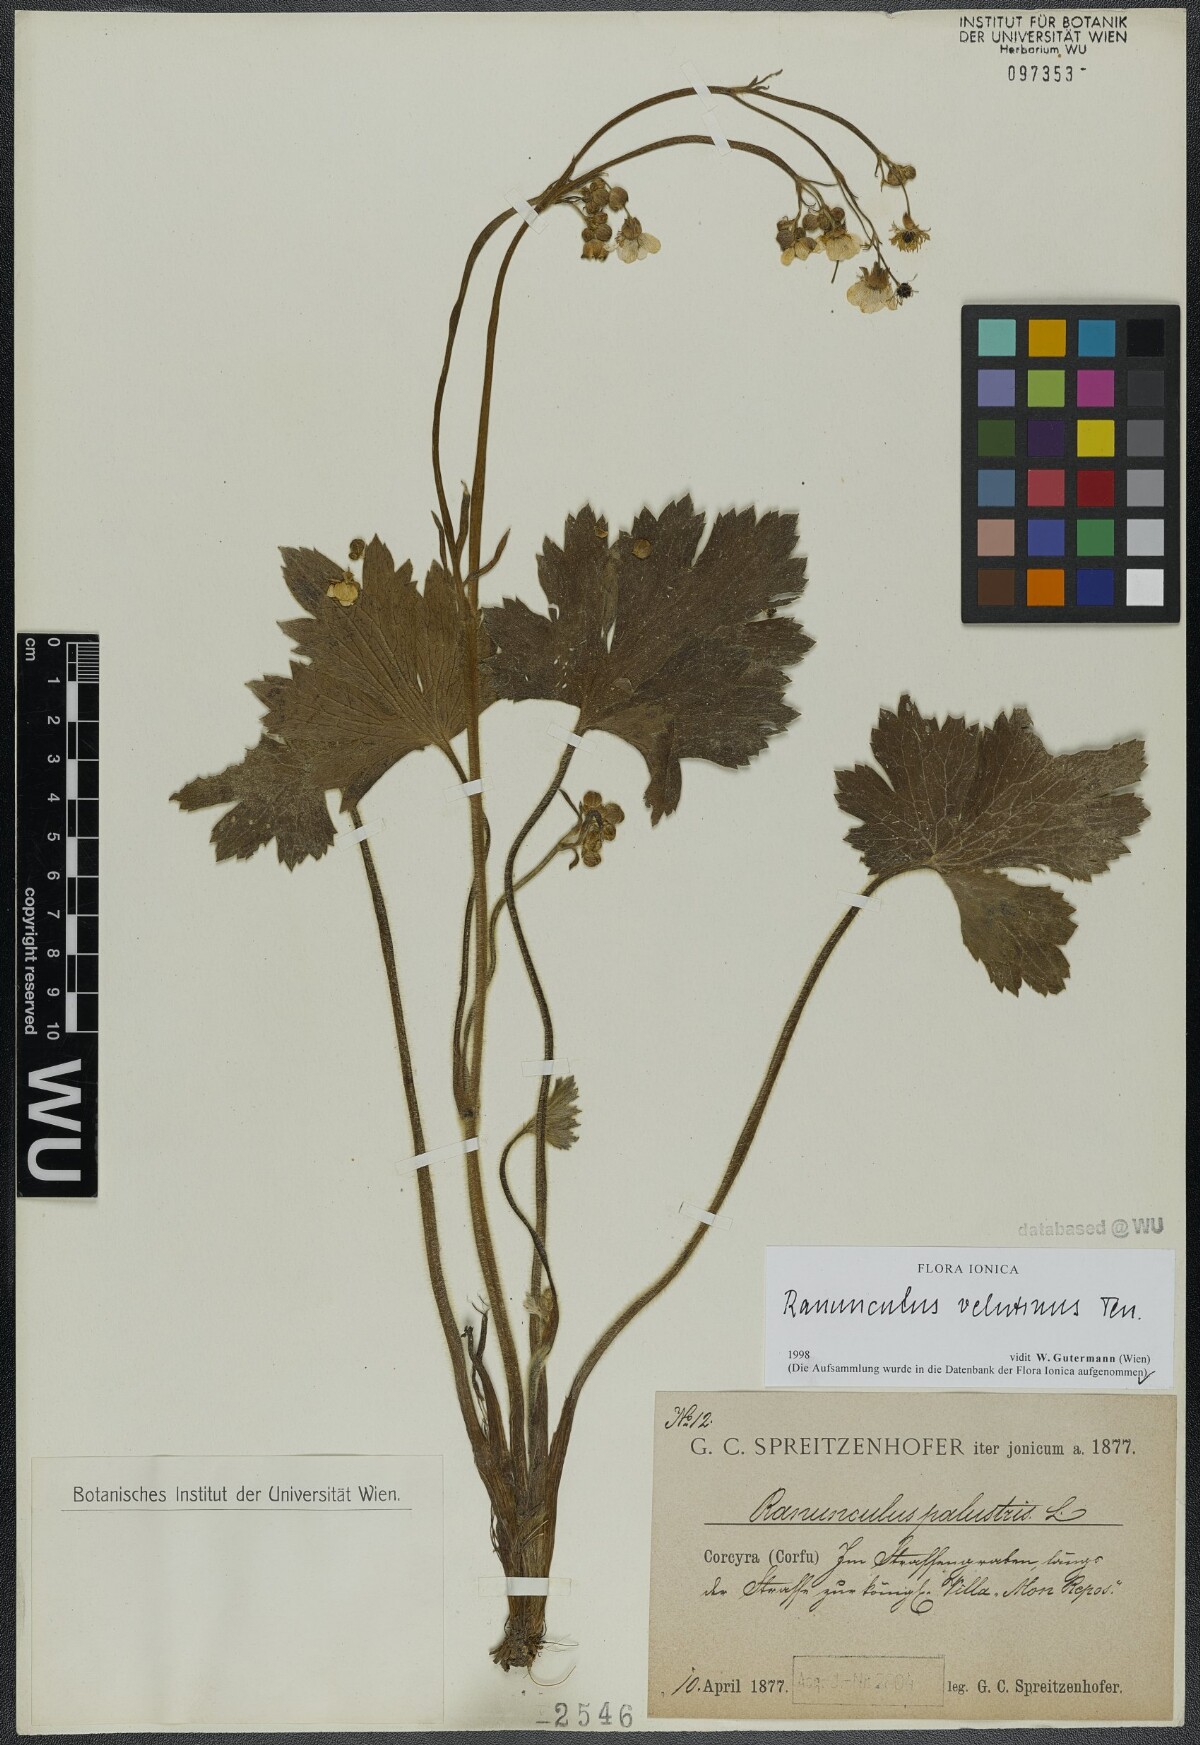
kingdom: Plantae
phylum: Tracheophyta
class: Magnoliopsida
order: Ranunculales
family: Ranunculaceae
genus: Ranunculus
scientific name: Ranunculus velutinus
